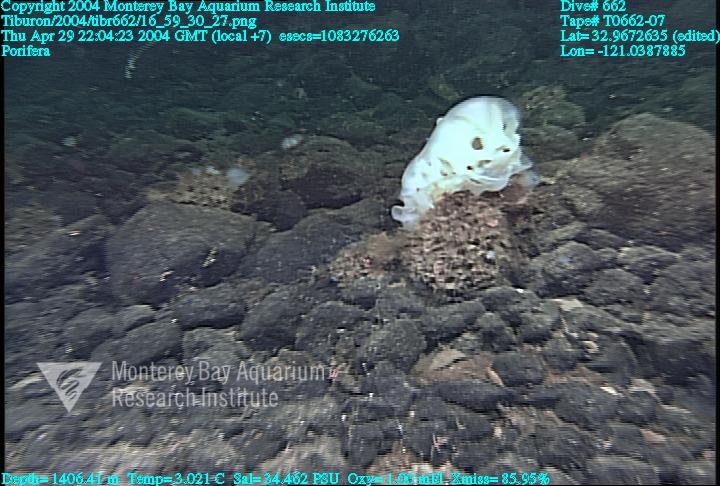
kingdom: Animalia
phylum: Porifera
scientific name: Porifera
